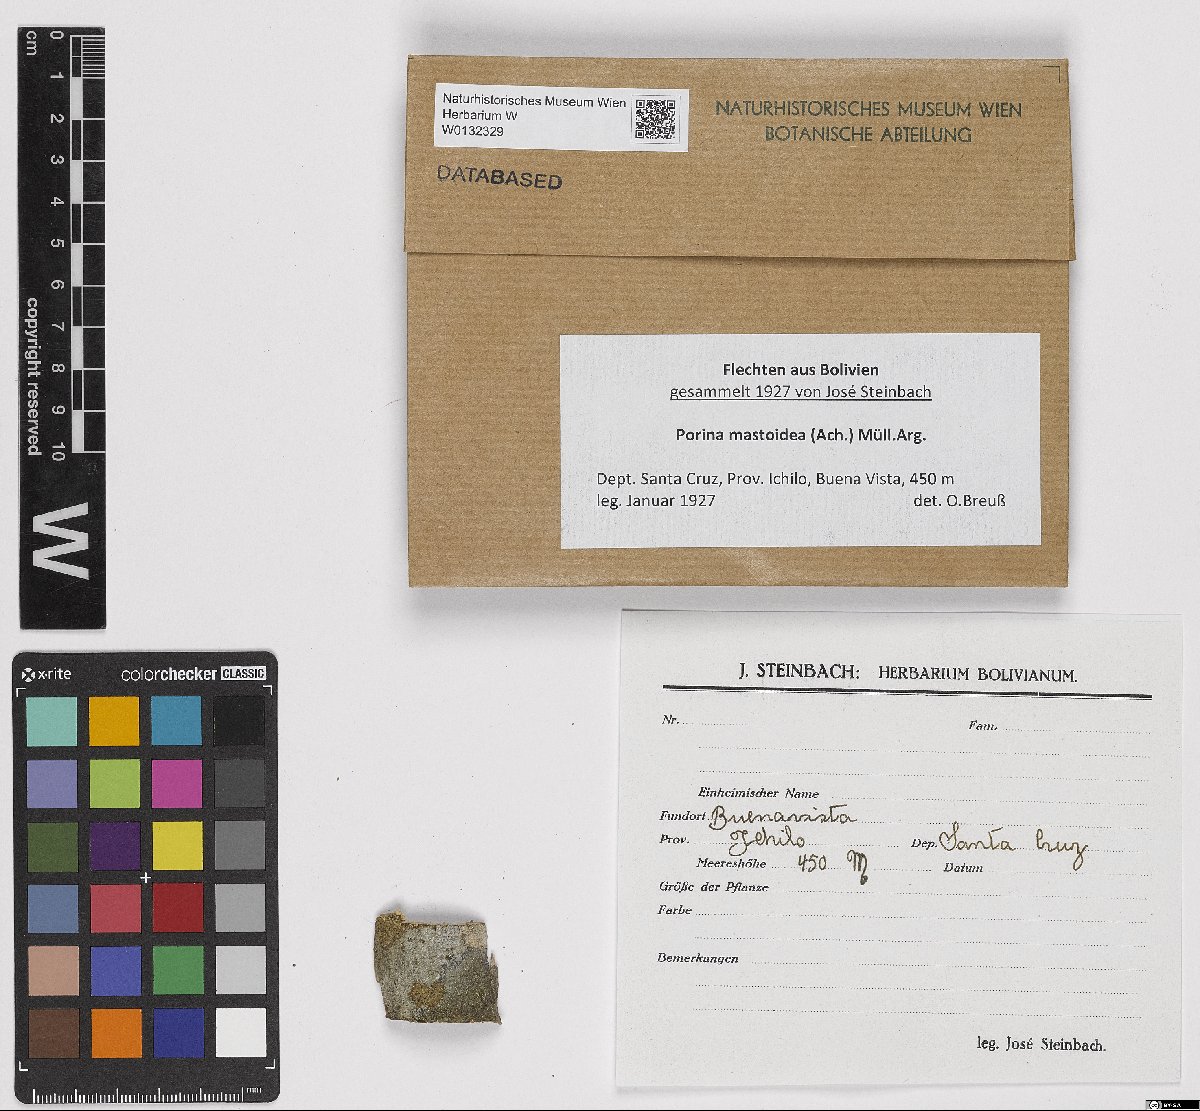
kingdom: Fungi
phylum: Ascomycota
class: Lecanoromycetes
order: Ostropales
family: Porinaceae
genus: Clathroporina
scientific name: Clathroporina mastoidea
